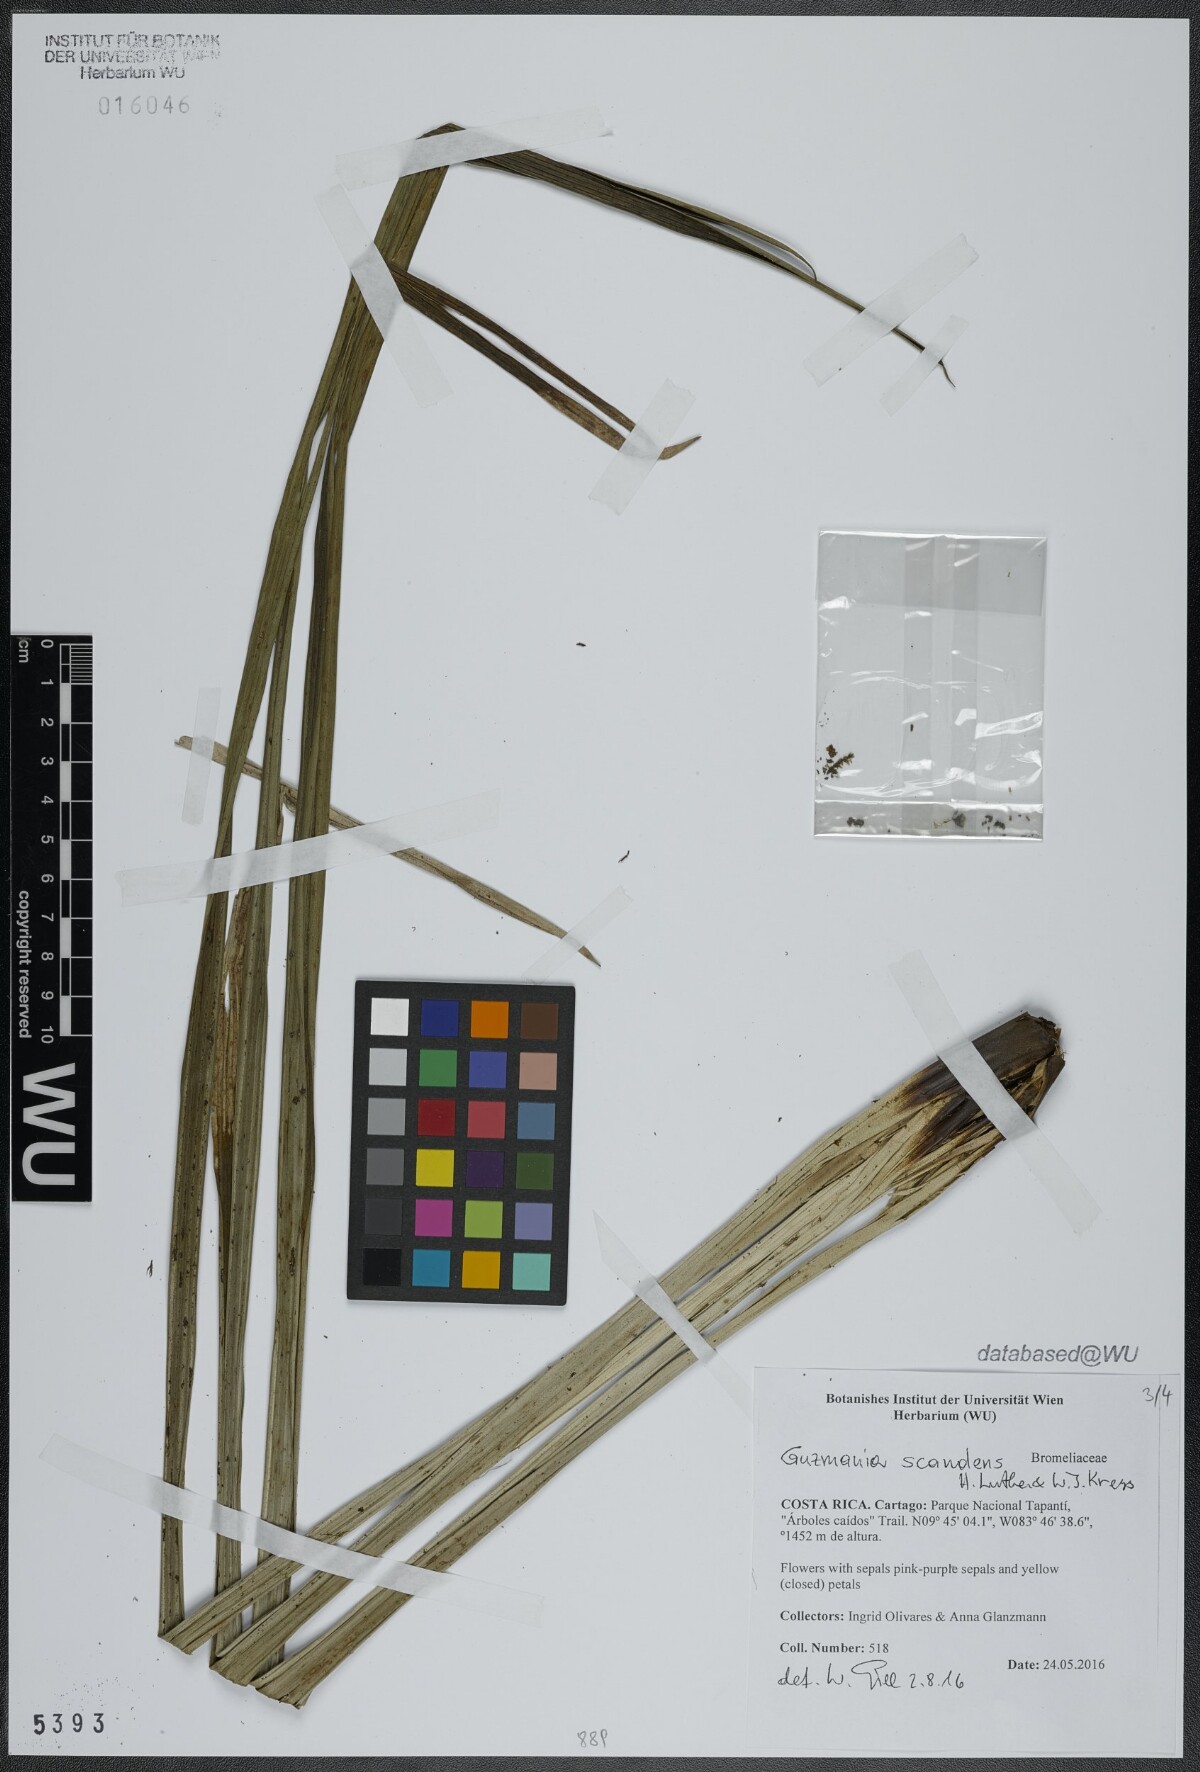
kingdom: Plantae
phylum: Tracheophyta
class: Liliopsida
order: Poales
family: Bromeliaceae
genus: Guzmania
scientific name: Guzmania scandens
